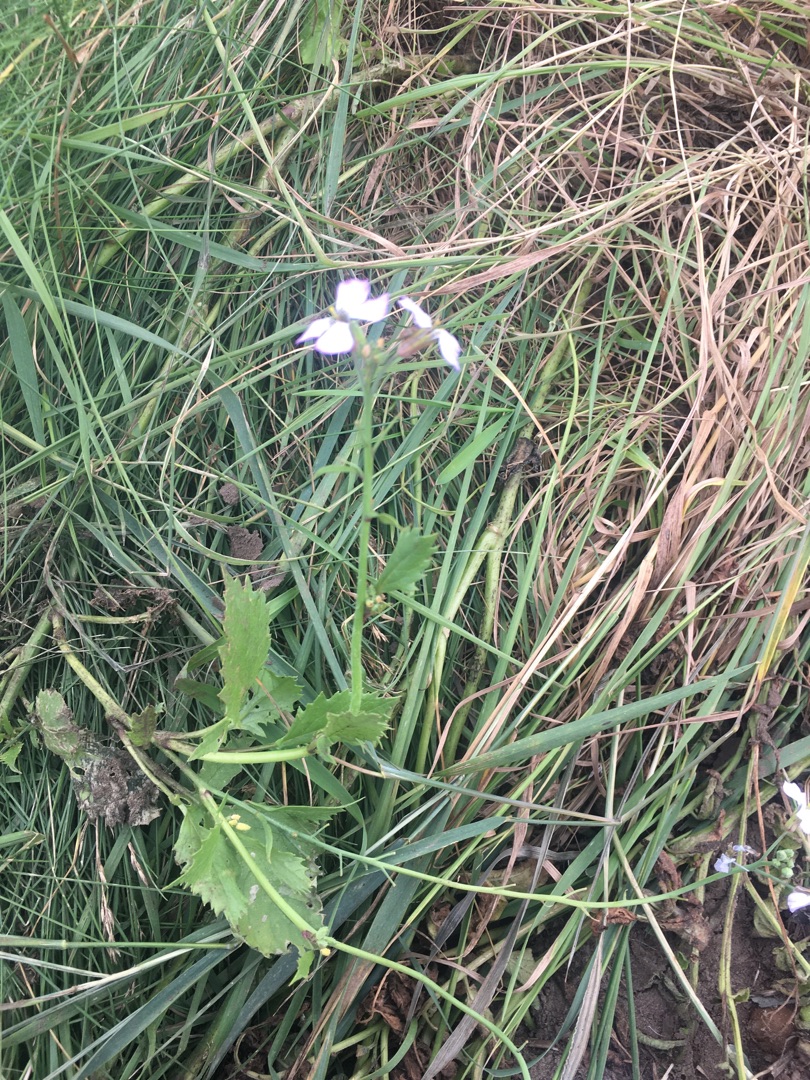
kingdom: Plantae
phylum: Tracheophyta
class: Magnoliopsida
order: Brassicales
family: Brassicaceae
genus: Raphanus
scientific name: Raphanus sativus
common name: Olie-ræddike
